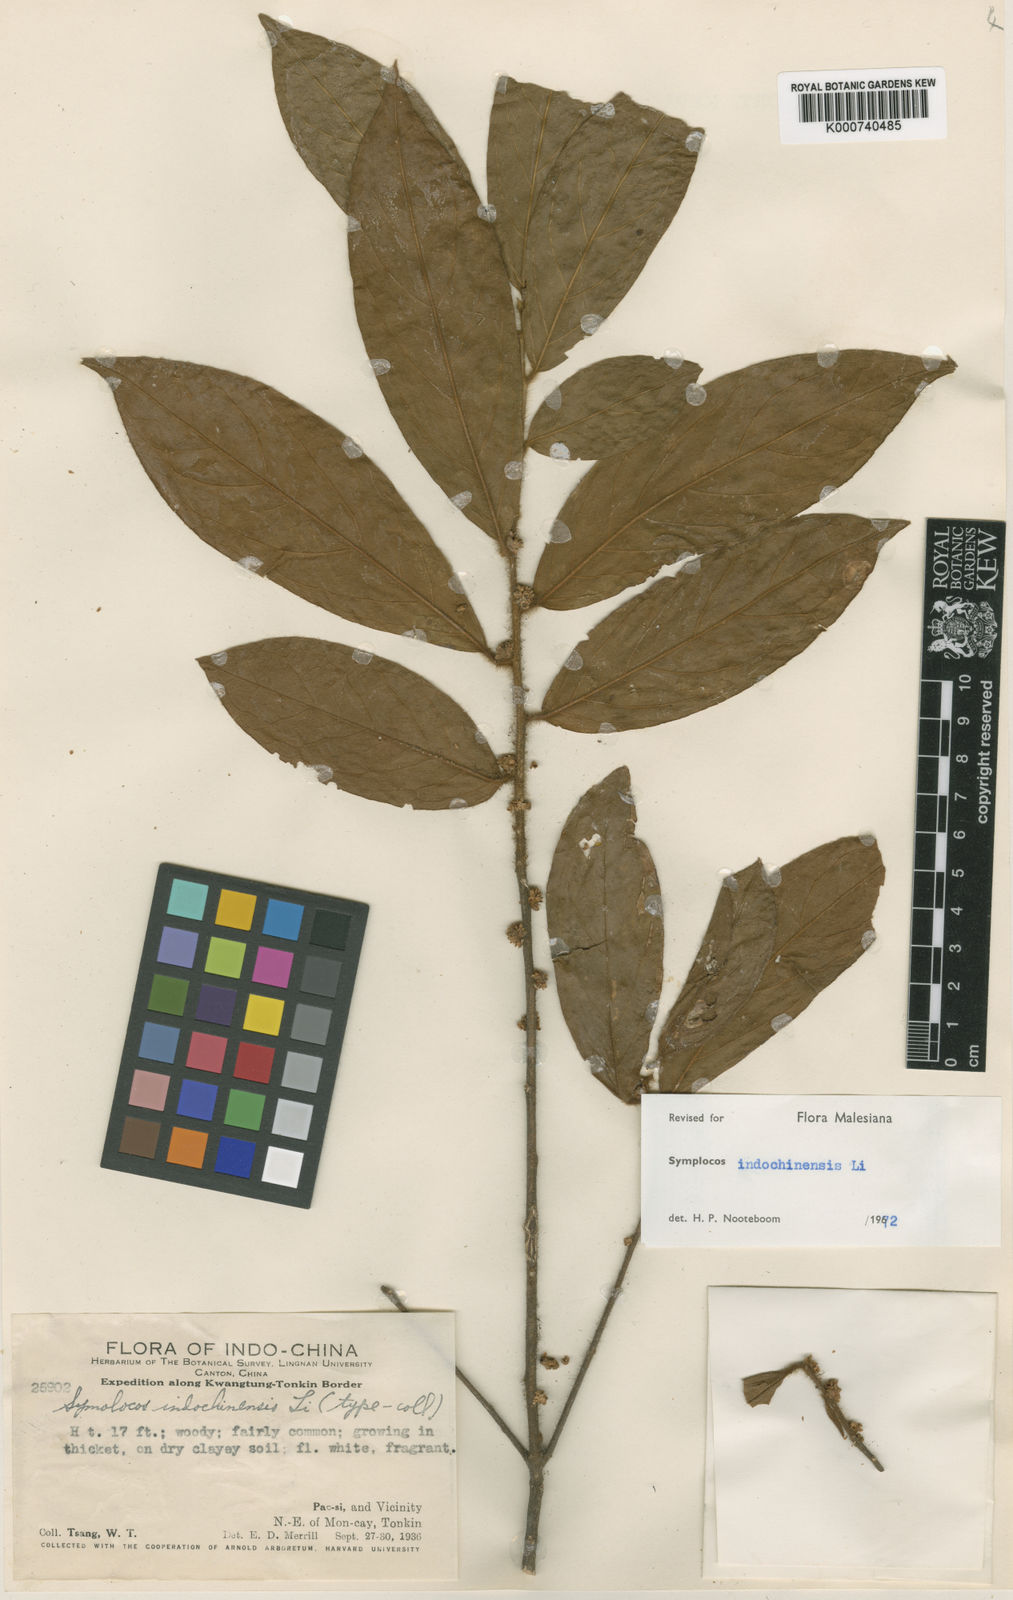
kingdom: Plantae
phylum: Tracheophyta
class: Magnoliopsida
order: Ericales
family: Symplocaceae
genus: Symplocos
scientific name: Symplocos dolichotricha
